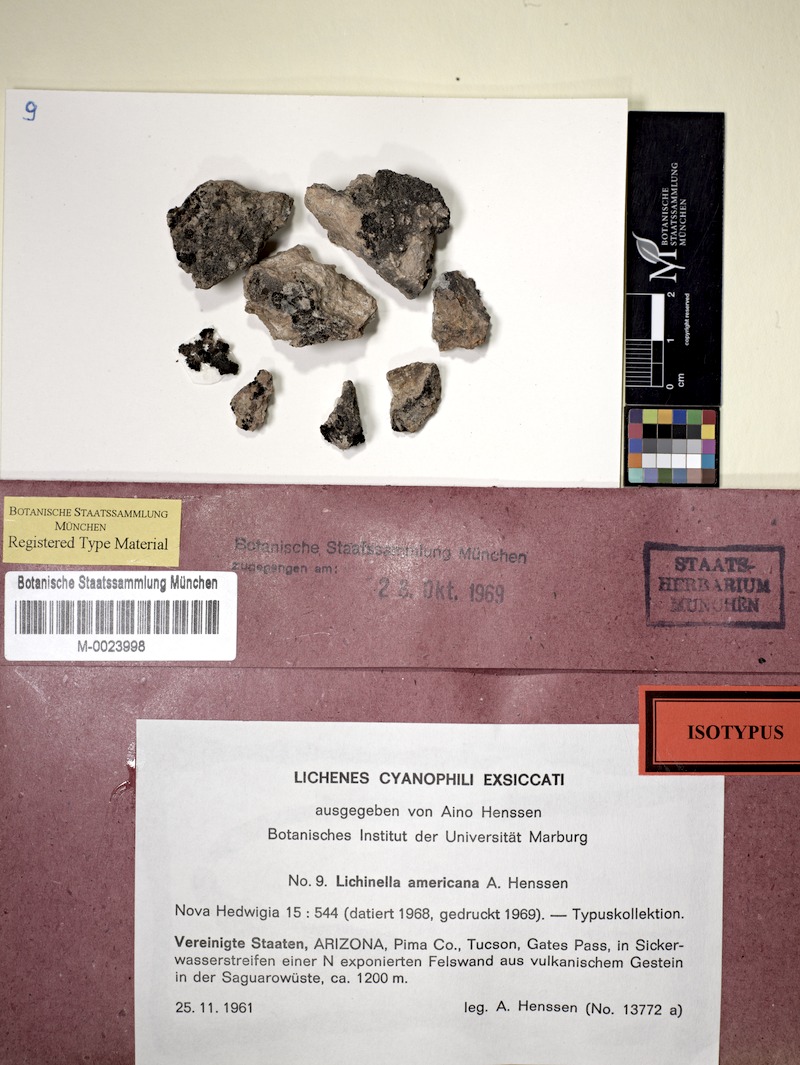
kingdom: Fungi
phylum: Ascomycota
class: Lichinomycetes
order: Lichinales
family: Lichinaceae
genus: Lichinella
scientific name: Lichinella americana
